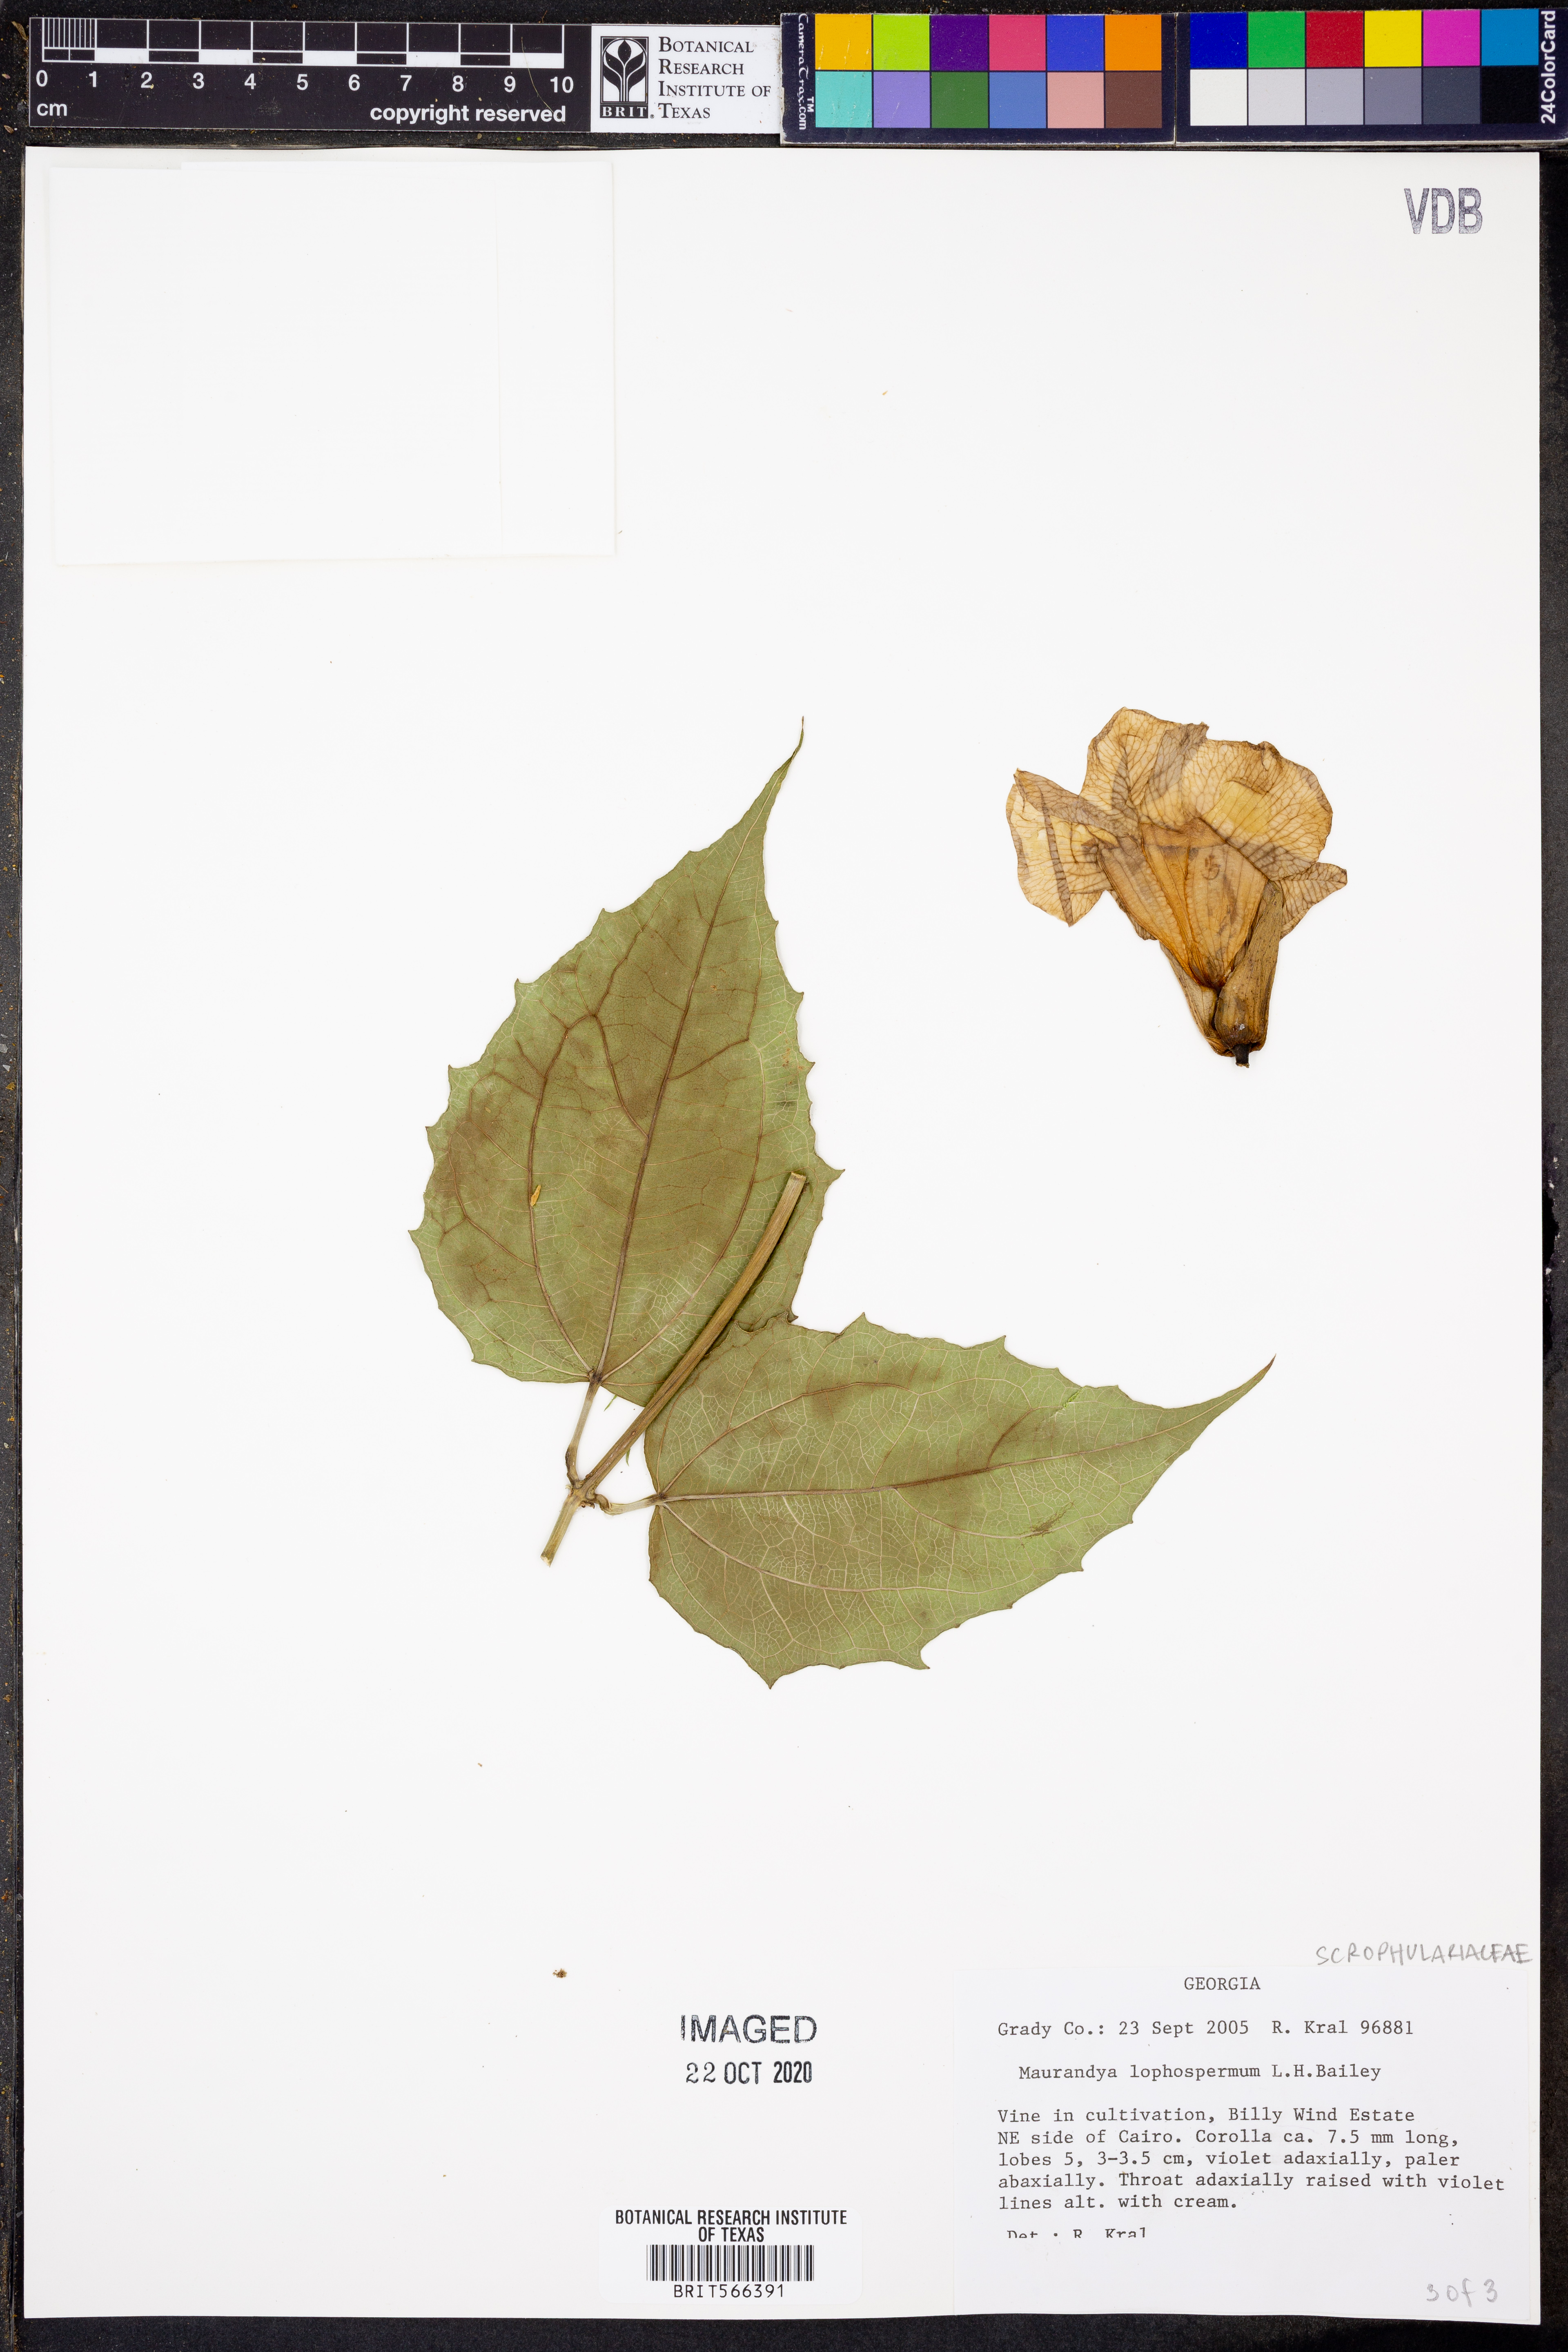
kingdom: Plantae
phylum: Tracheophyta
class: Magnoliopsida
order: Lamiales
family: Plantaginaceae
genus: Lophospermum
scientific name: Lophospermum erubescens
